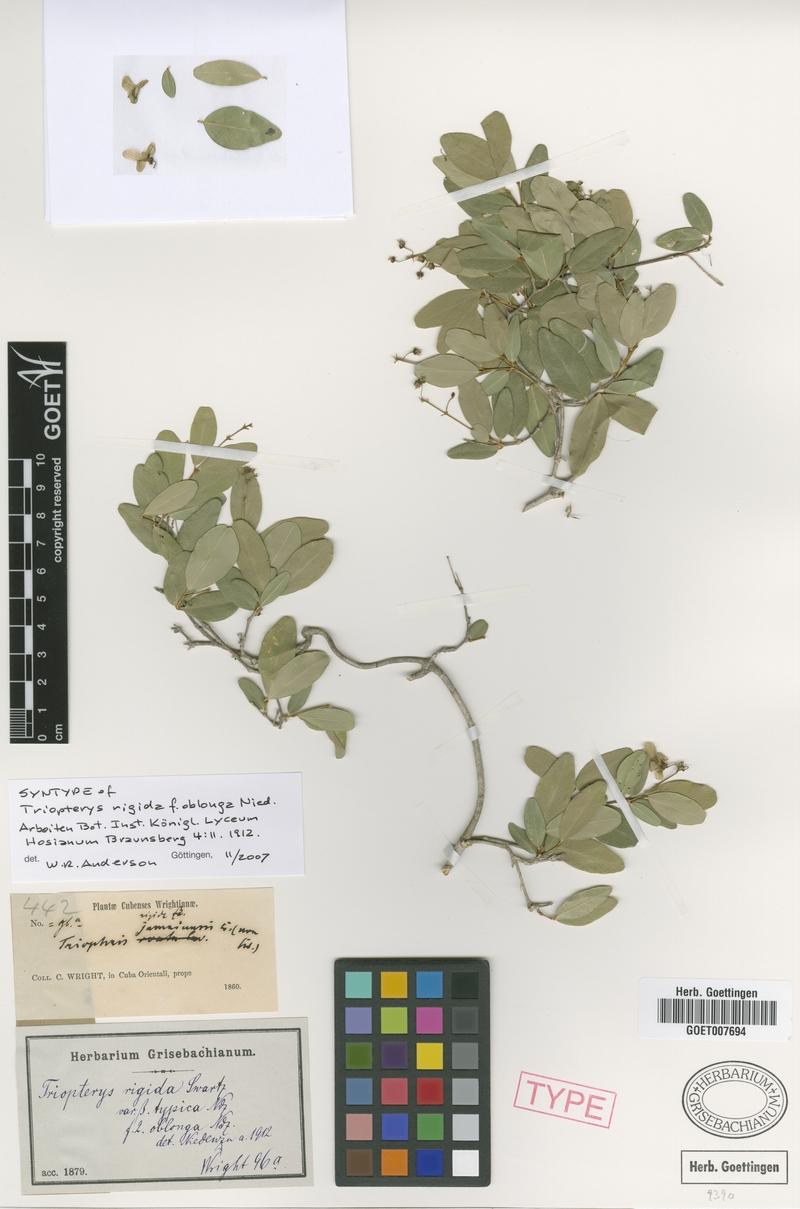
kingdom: Plantae
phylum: Tracheophyta
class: Magnoliopsida
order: Malpighiales
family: Malpighiaceae
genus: Mascagnia
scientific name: Mascagnia lucida
